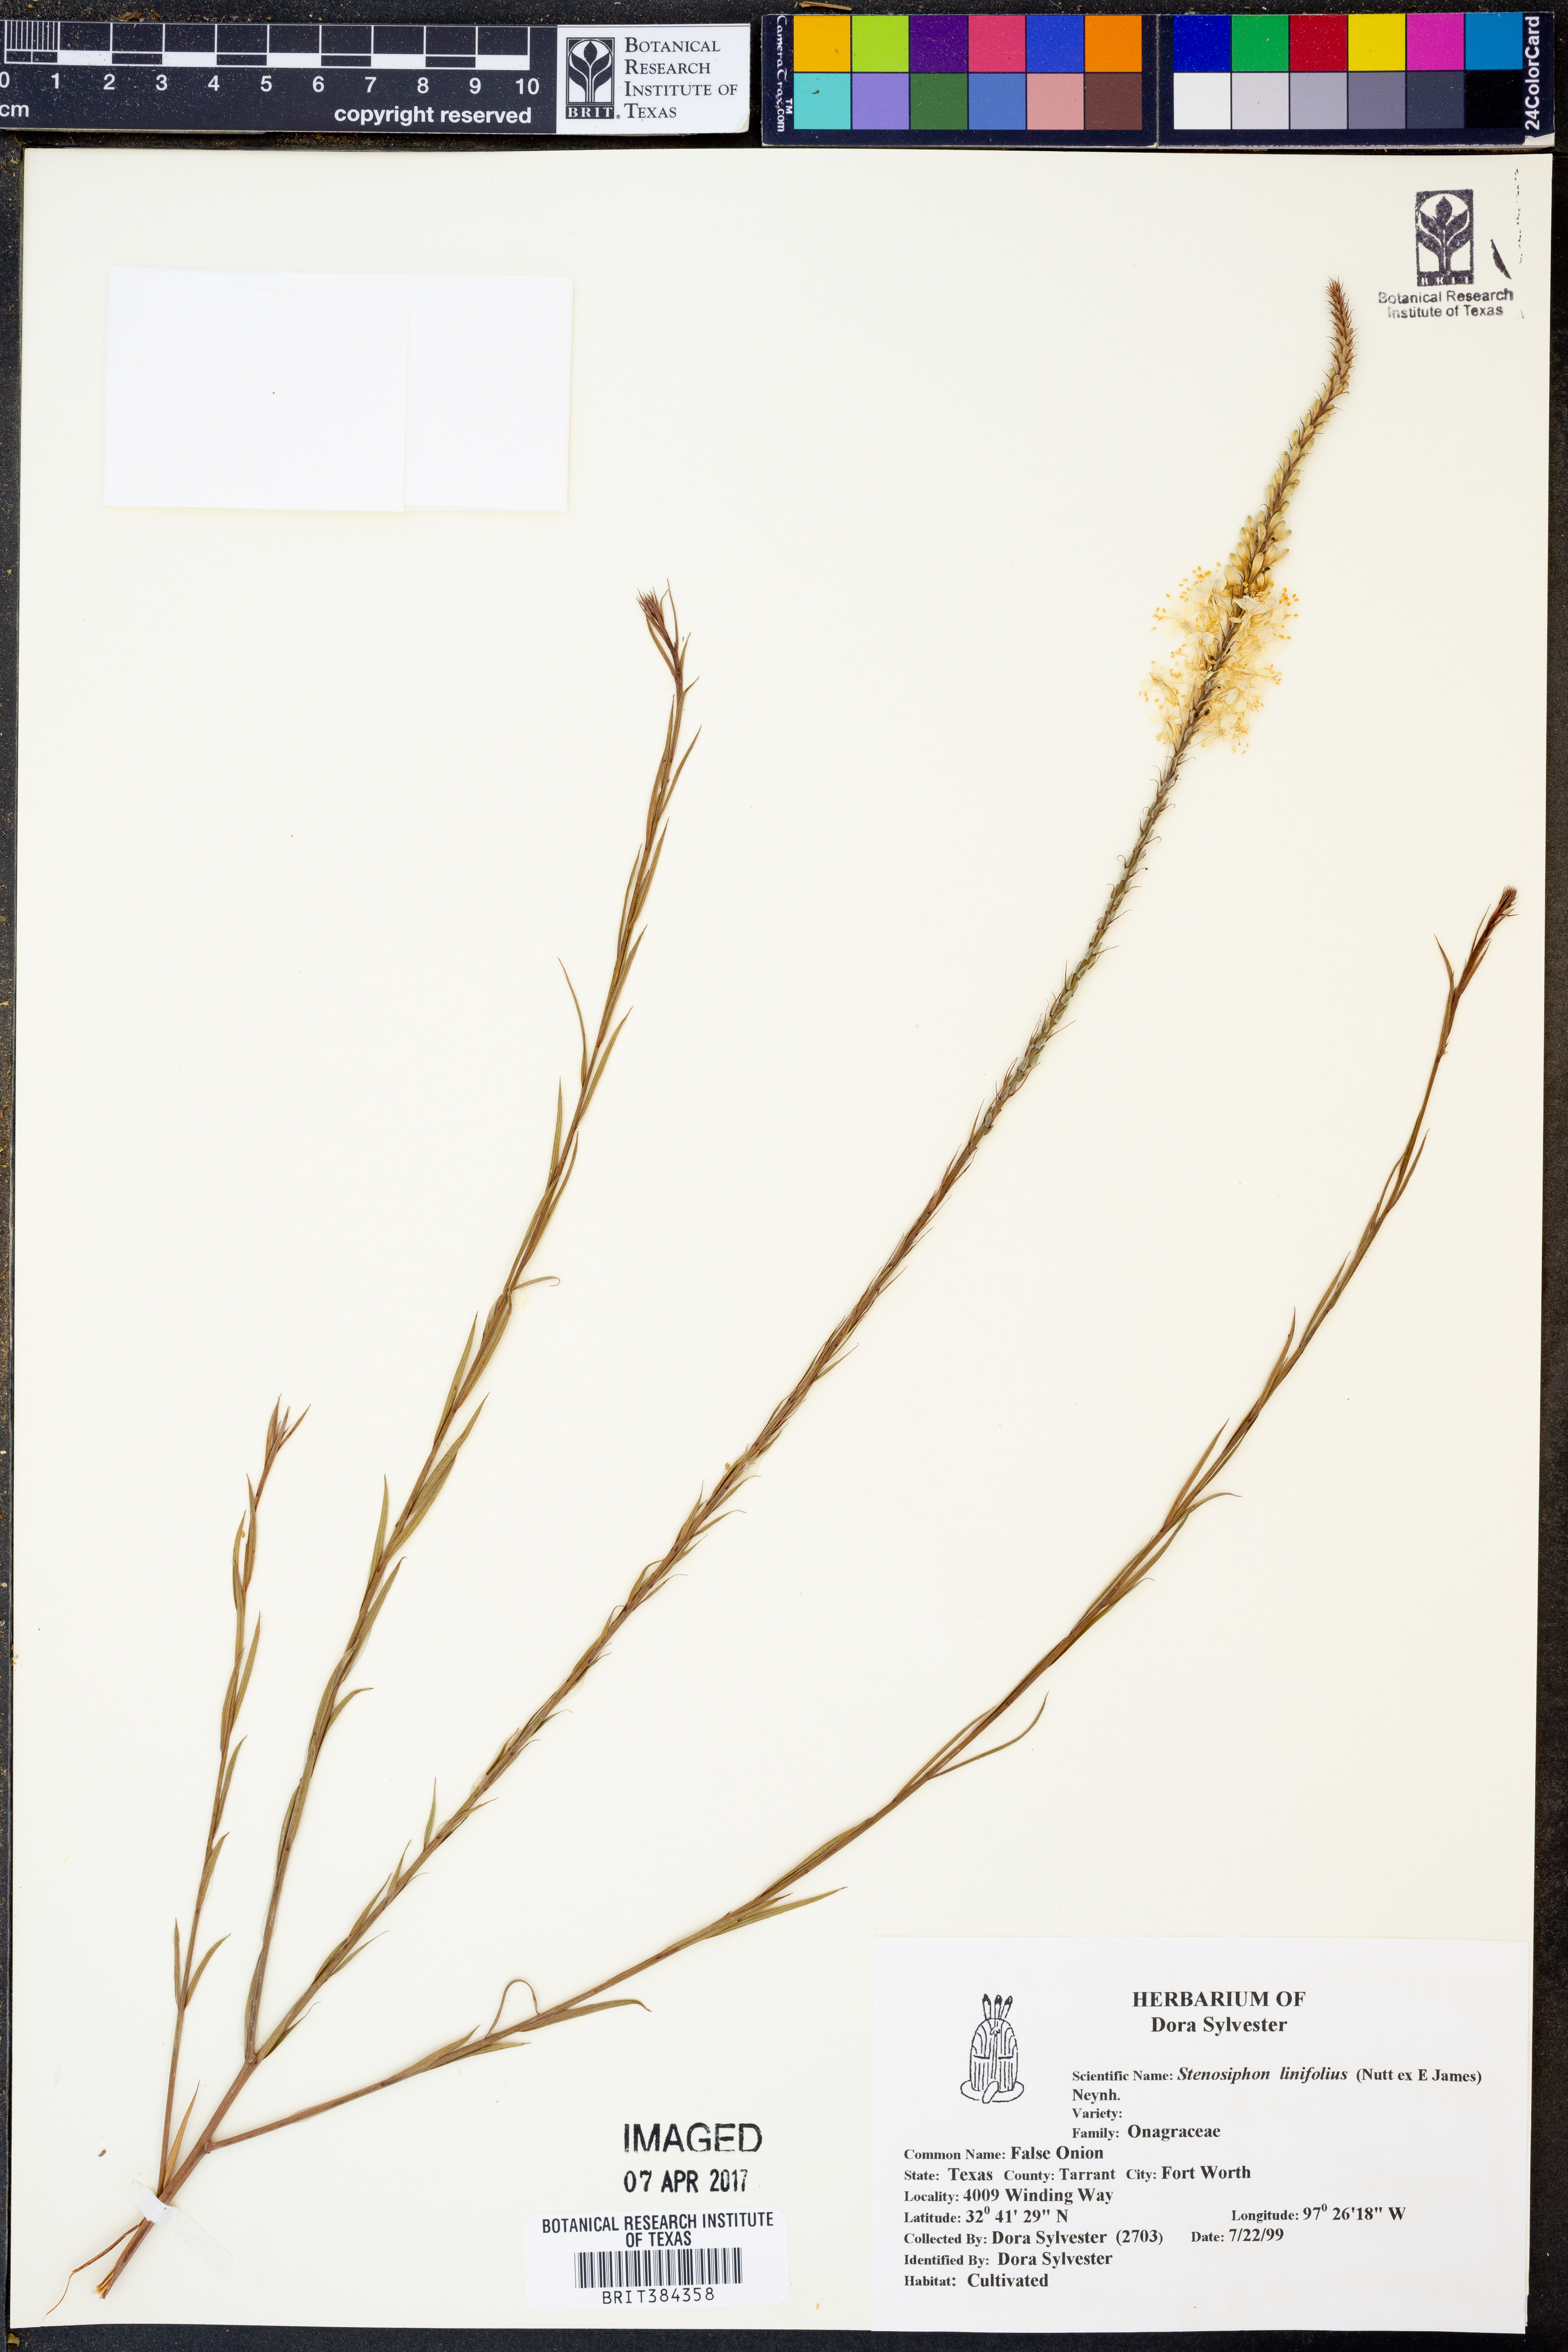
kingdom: Plantae
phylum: Tracheophyta
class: Magnoliopsida
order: Myrtales
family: Onagraceae
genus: Oenothera
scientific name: Oenothera glaucifolia
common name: False gaura
